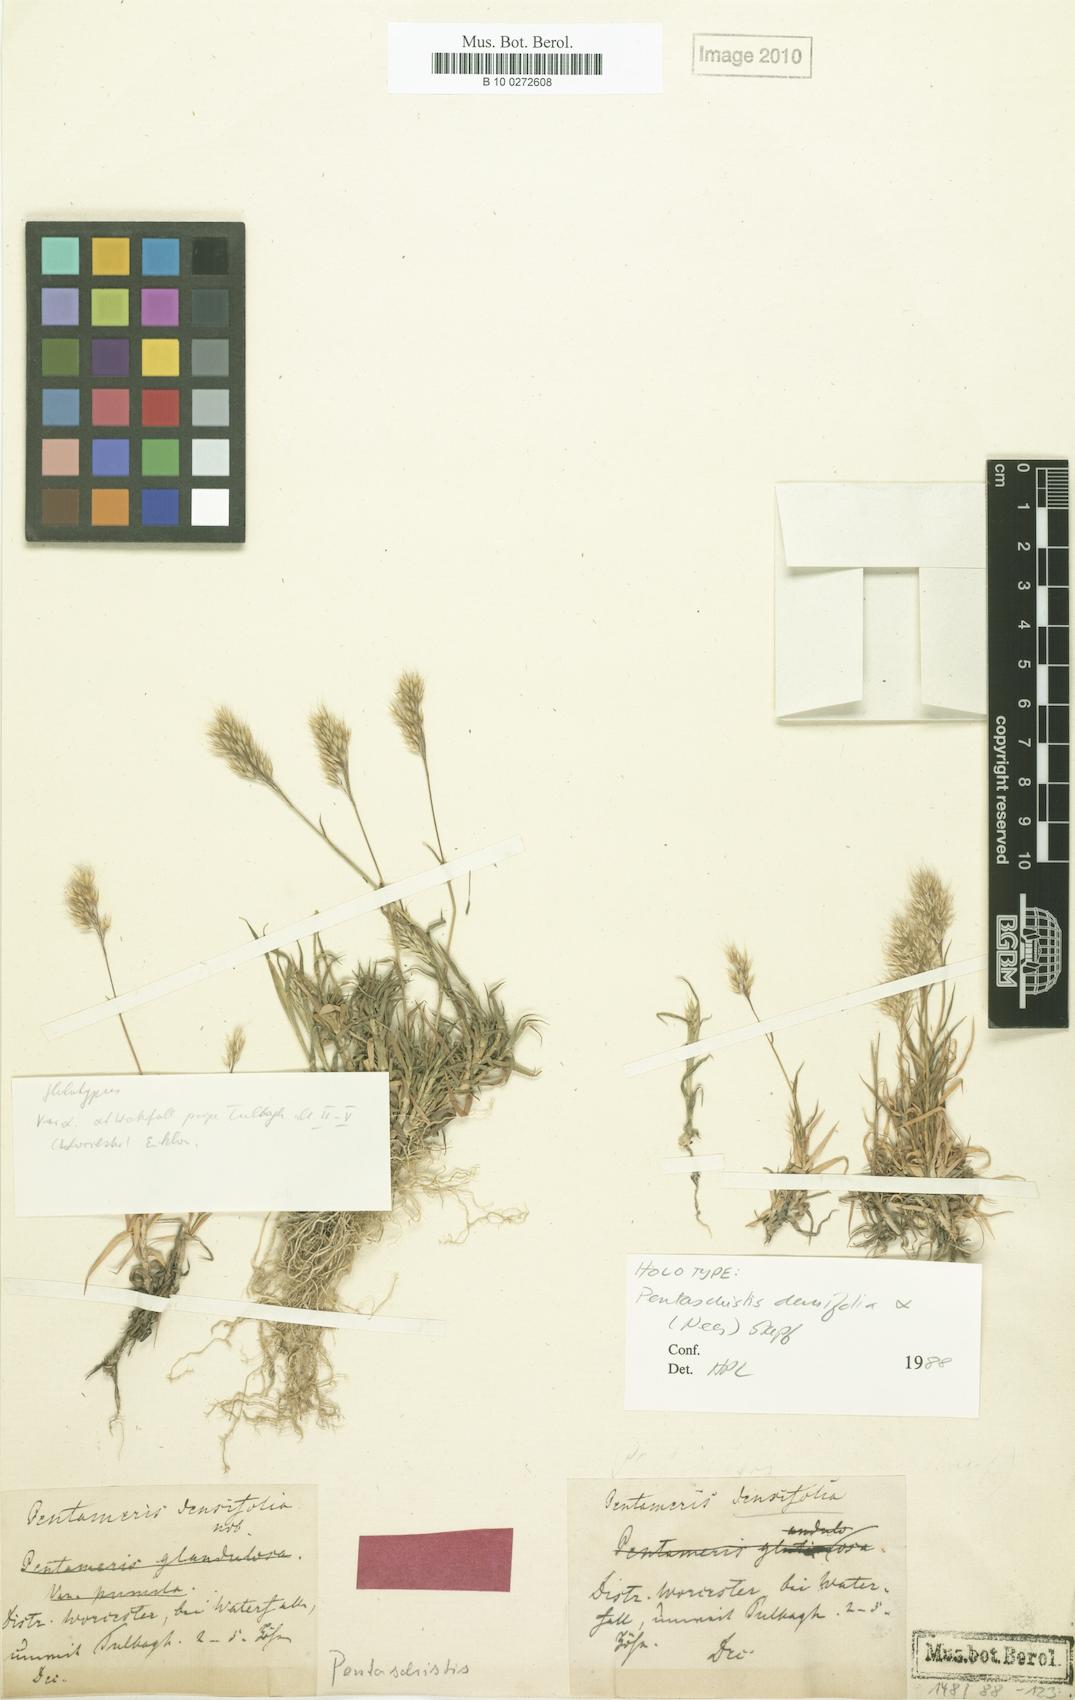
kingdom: Plantae
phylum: Tracheophyta
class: Liliopsida
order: Poales
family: Poaceae
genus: Pentameris
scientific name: Pentameris densifolia
